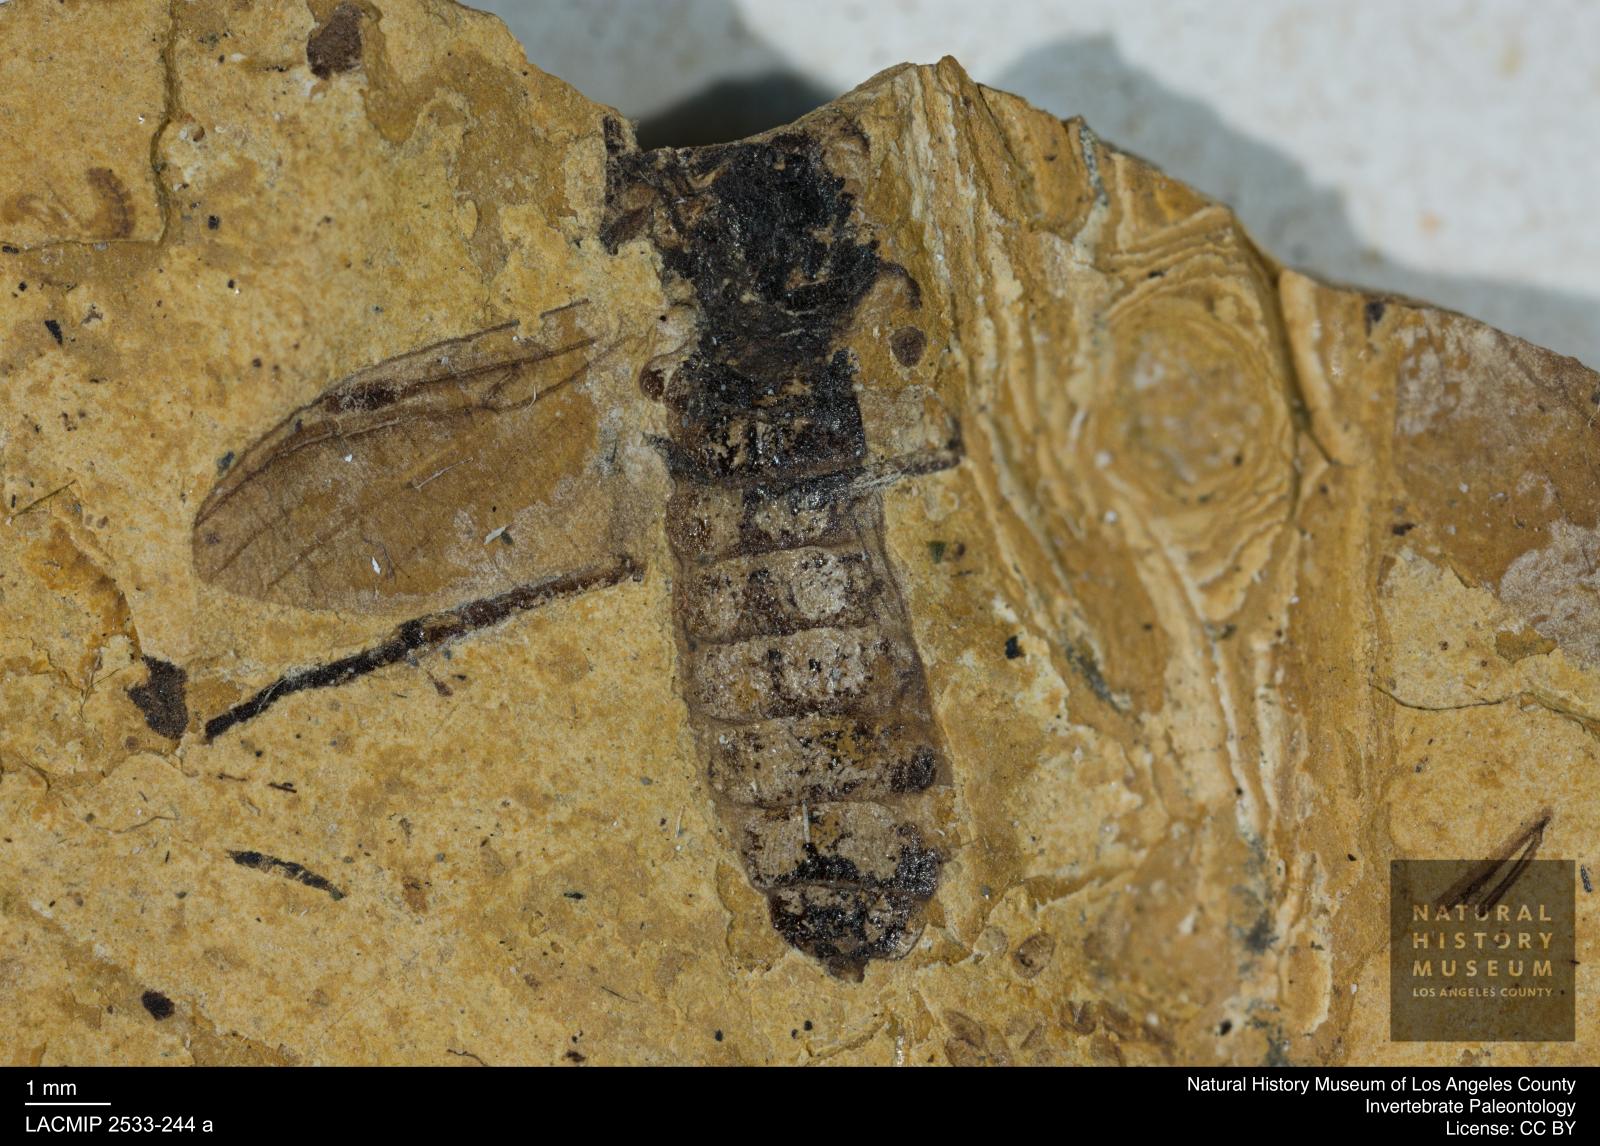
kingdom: Animalia
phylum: Arthropoda
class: Insecta
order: Diptera
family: Bibionidae
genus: Bibio
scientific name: Bibio aerosus
